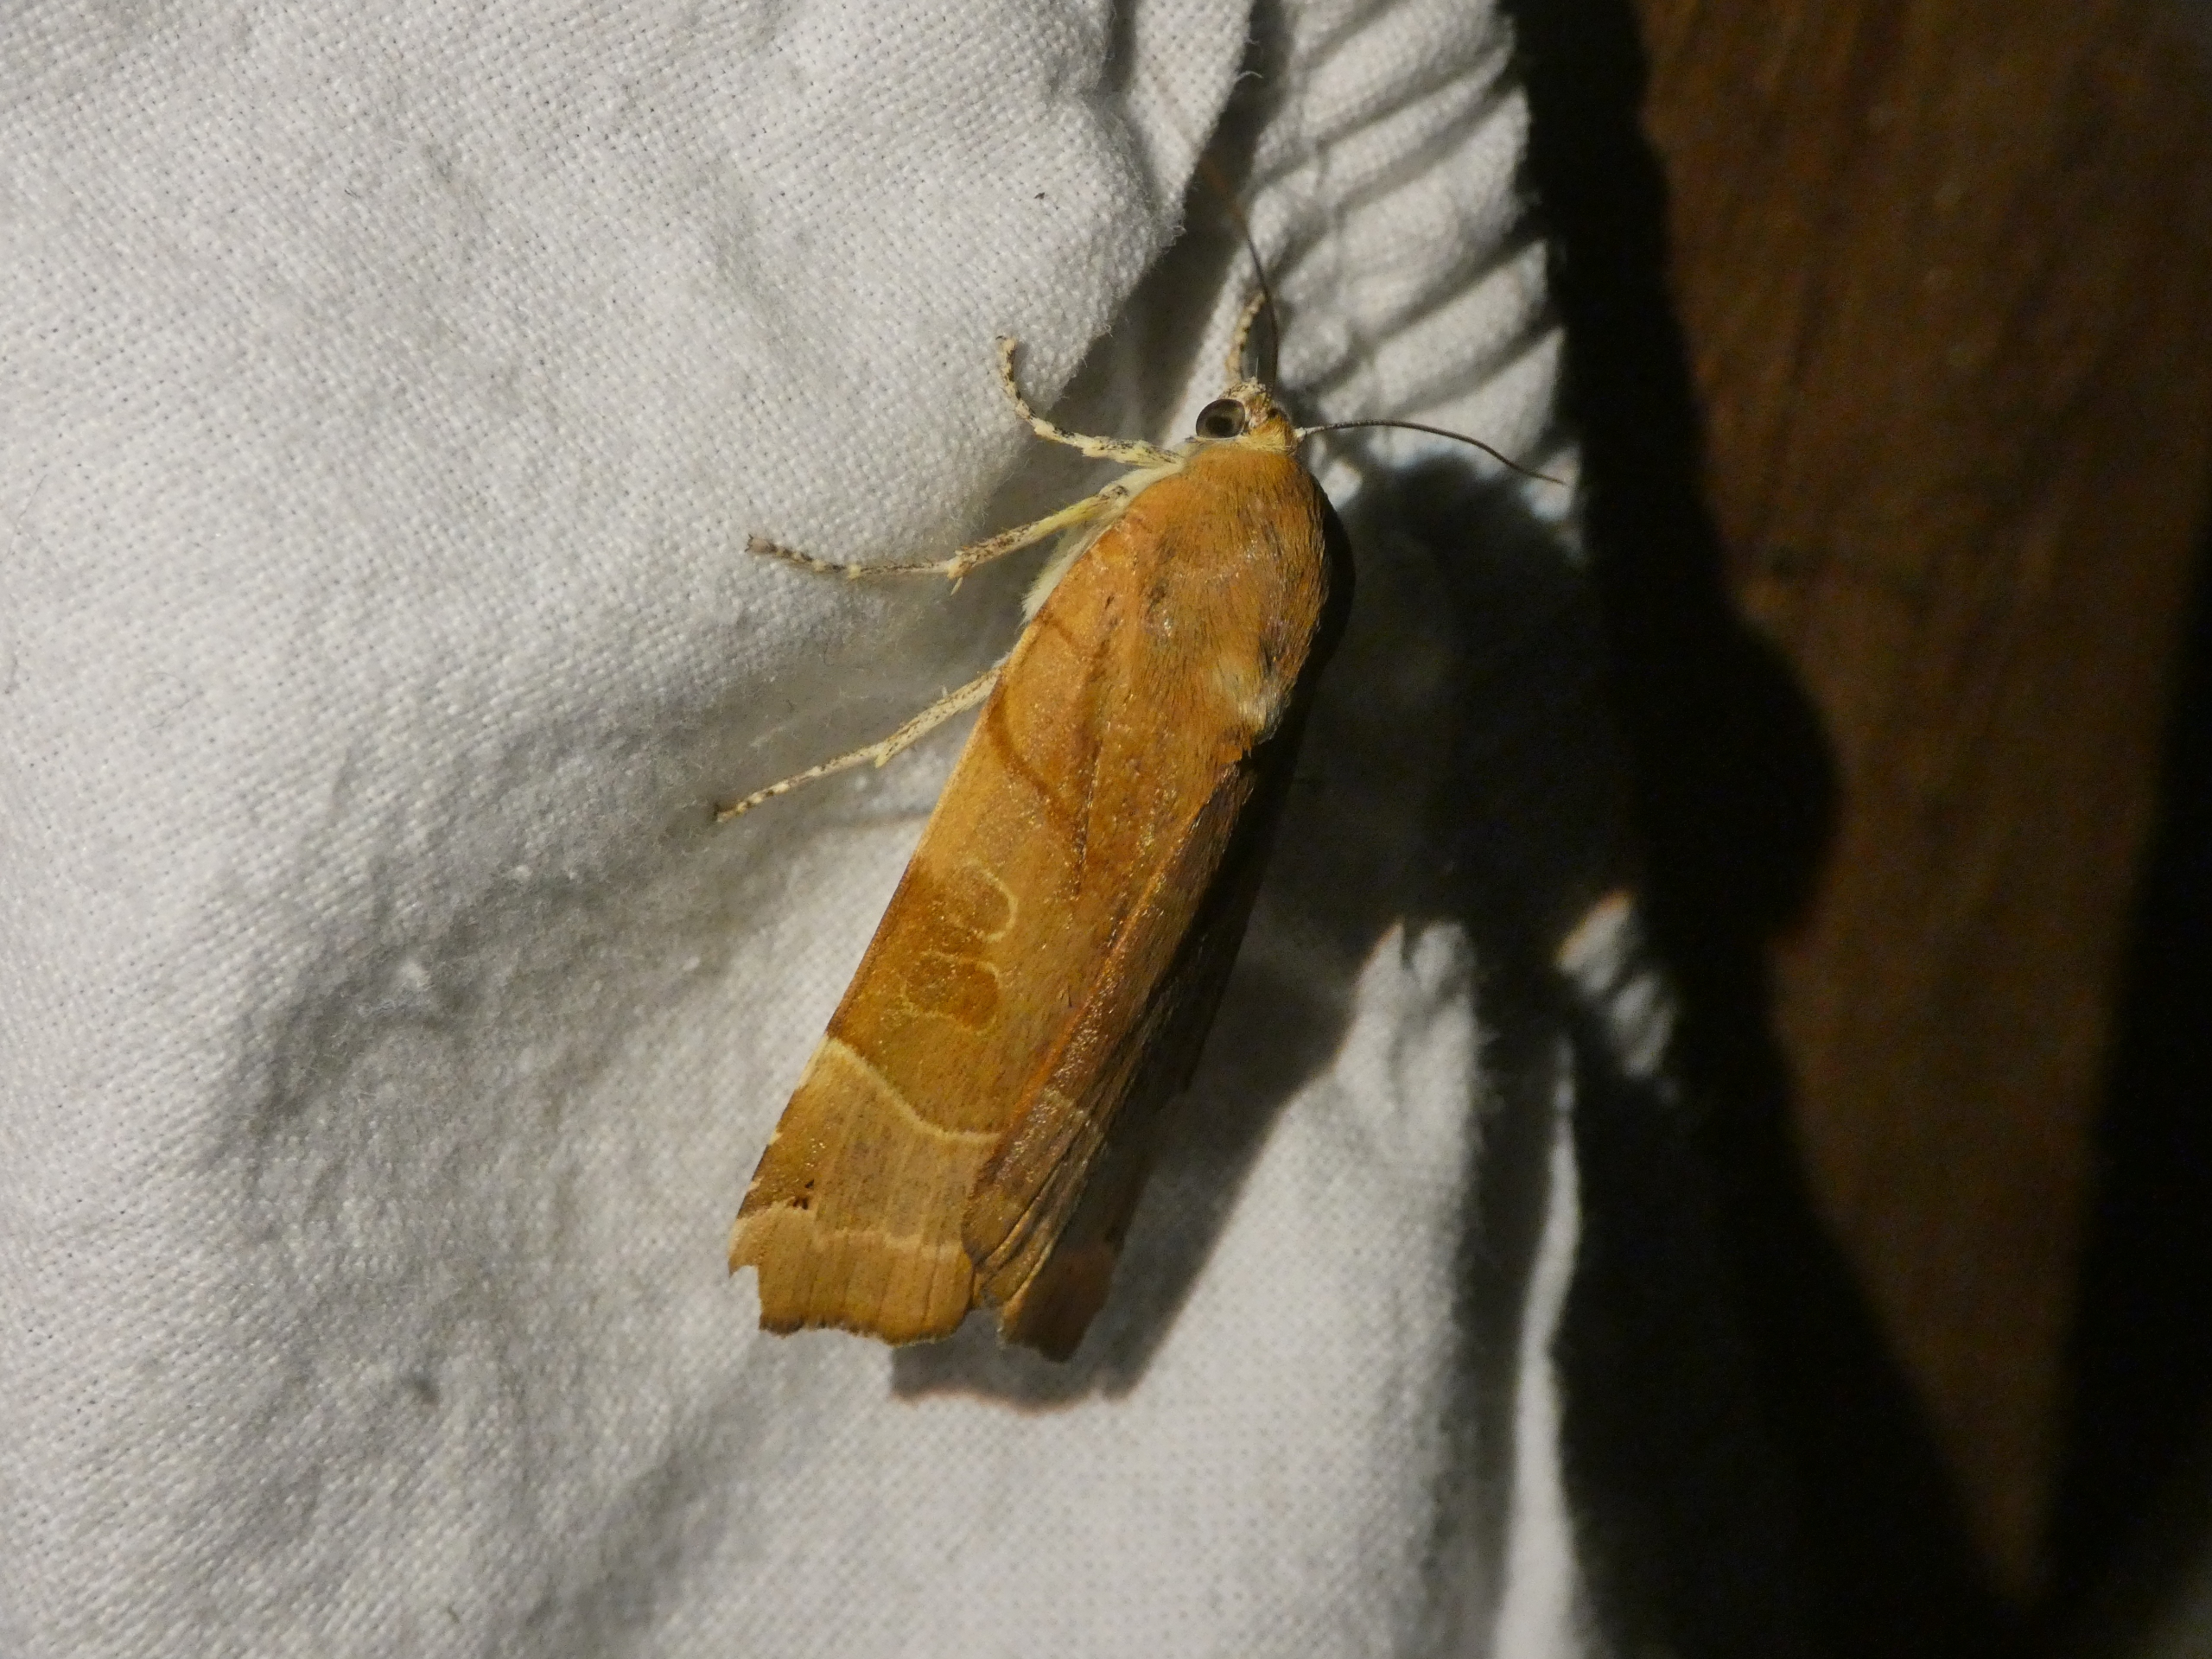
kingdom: Animalia
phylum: Arthropoda
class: Insecta
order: Lepidoptera
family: Noctuidae
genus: Noctua
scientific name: Noctua fimbriata
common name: Gul båndugle
